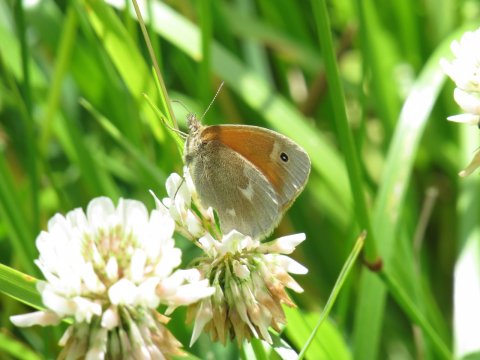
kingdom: Animalia
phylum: Arthropoda
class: Insecta
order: Lepidoptera
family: Nymphalidae
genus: Coenonympha
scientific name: Coenonympha tullia
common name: Large Heath
